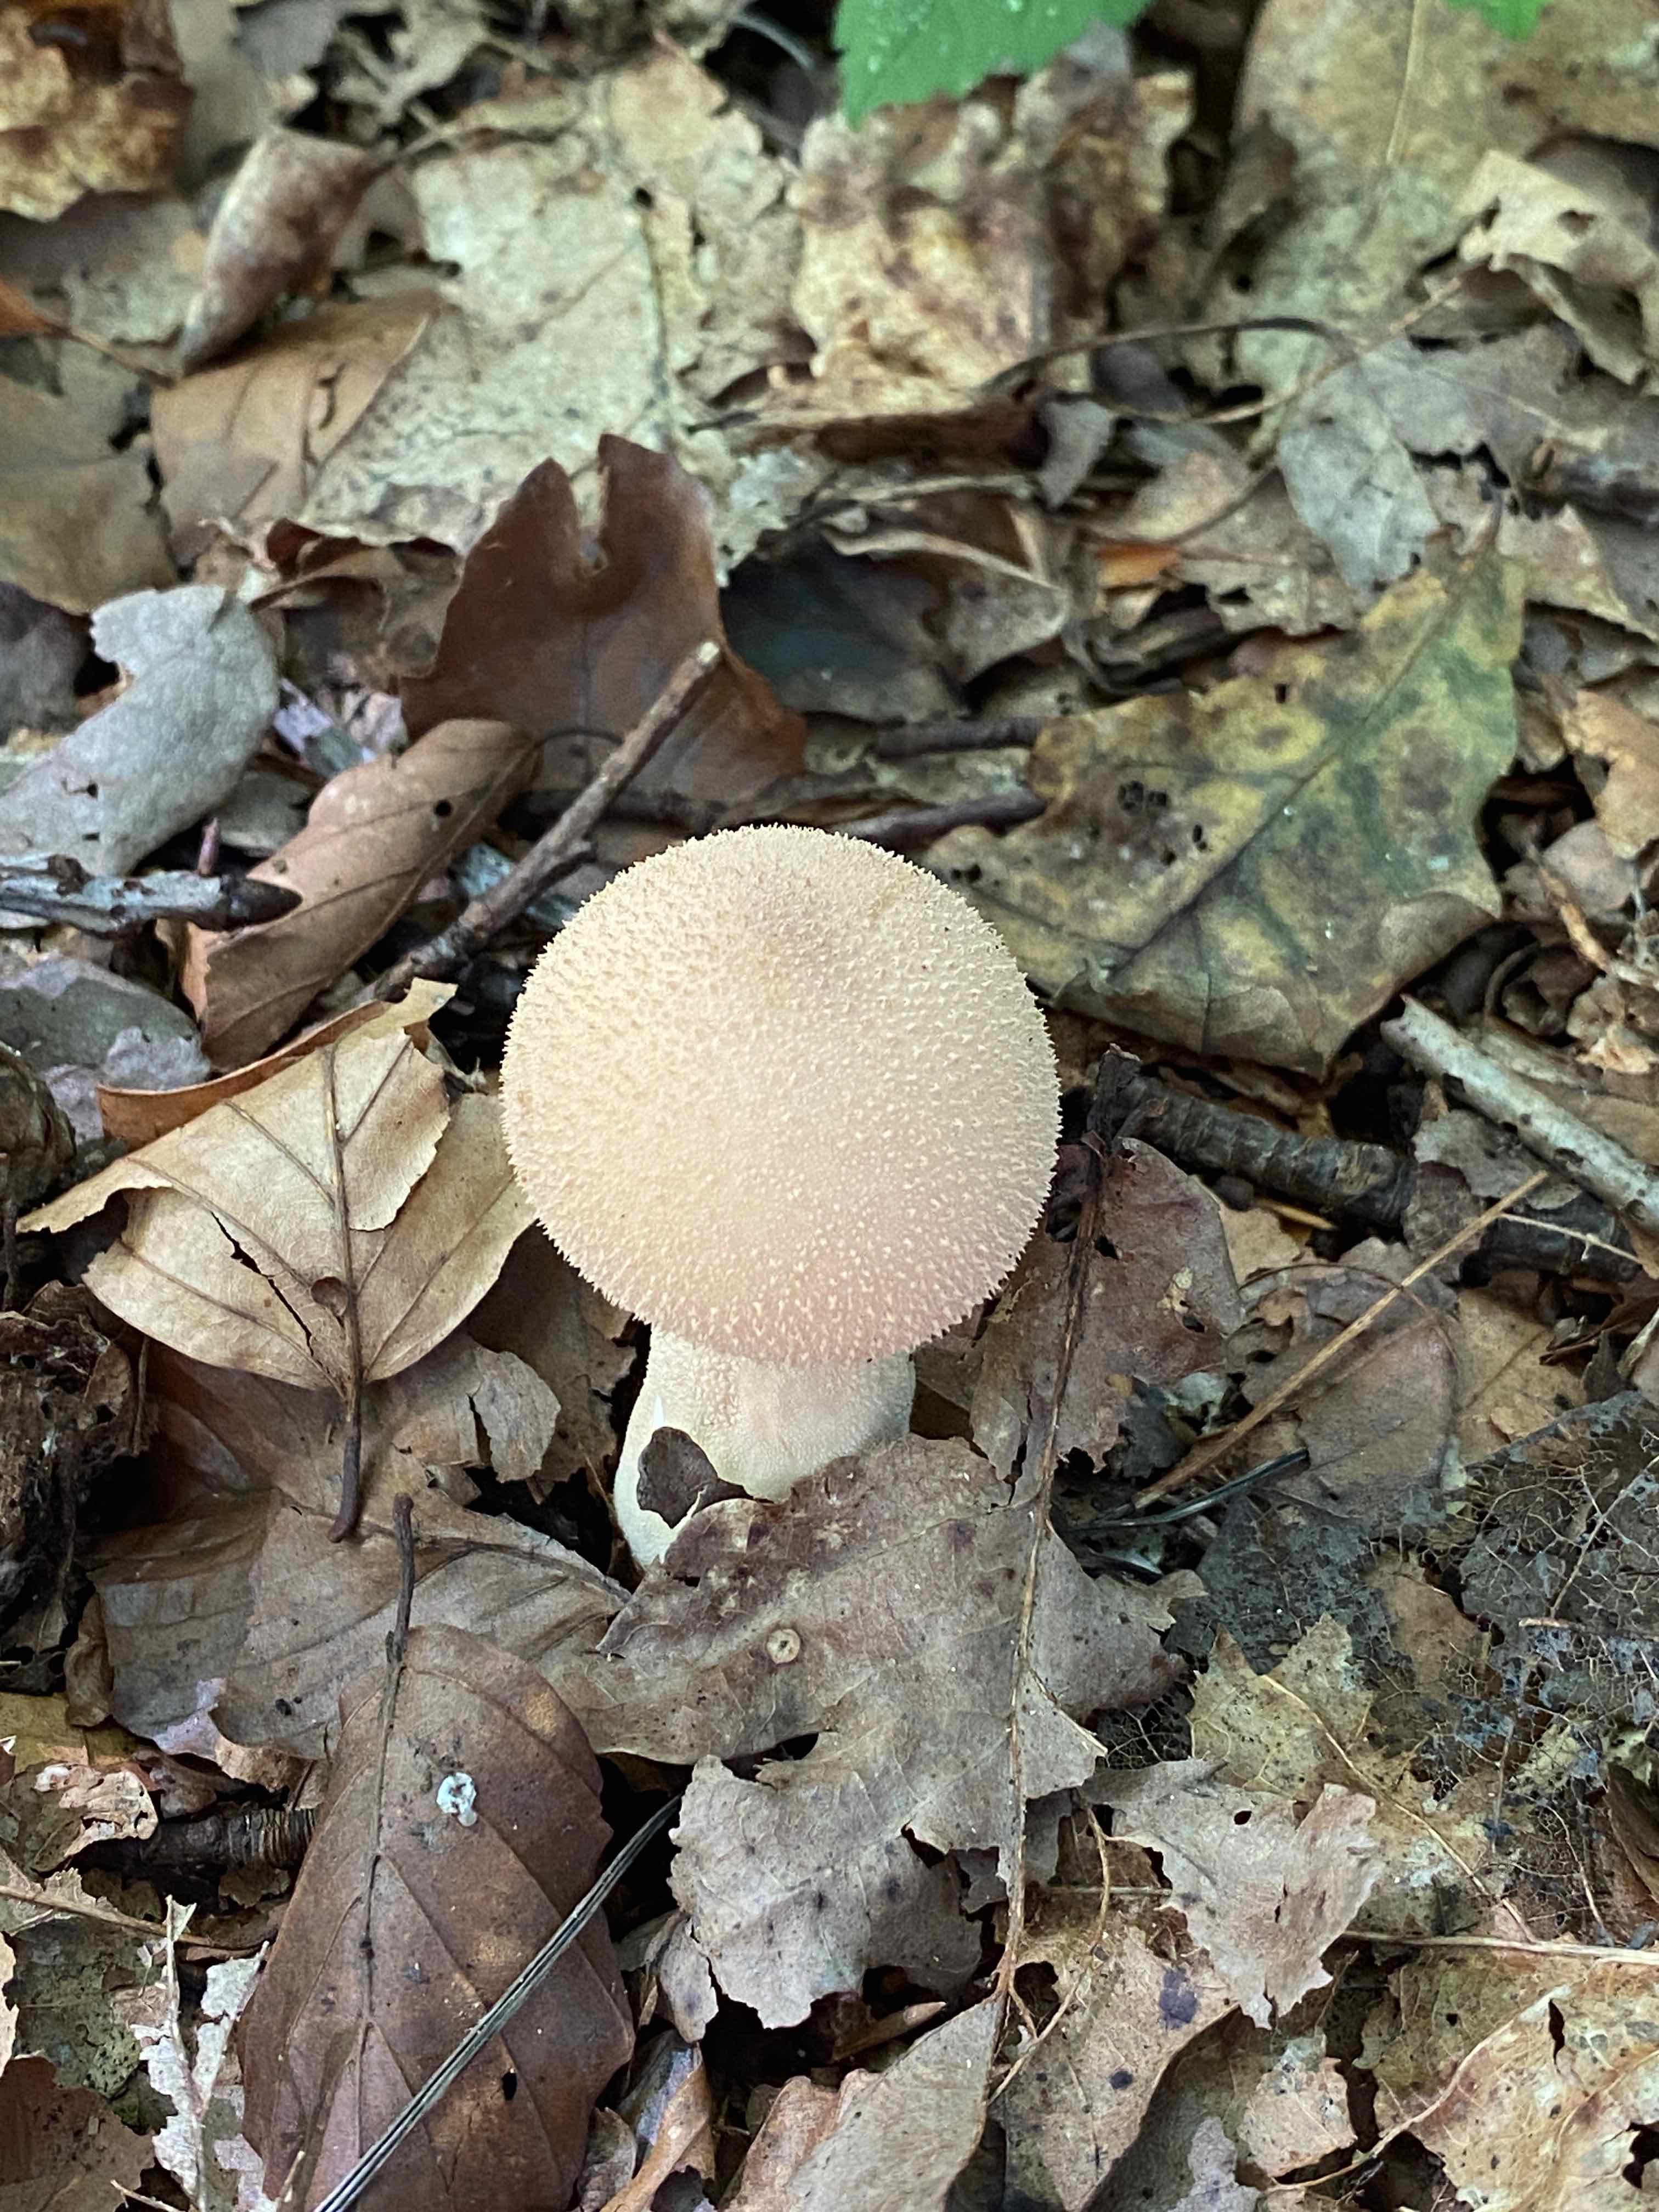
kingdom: Fungi
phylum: Basidiomycota
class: Agaricomycetes
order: Agaricales
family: Agaricaceae
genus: Lycoperdon
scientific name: Lycoperdon
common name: støvbold
